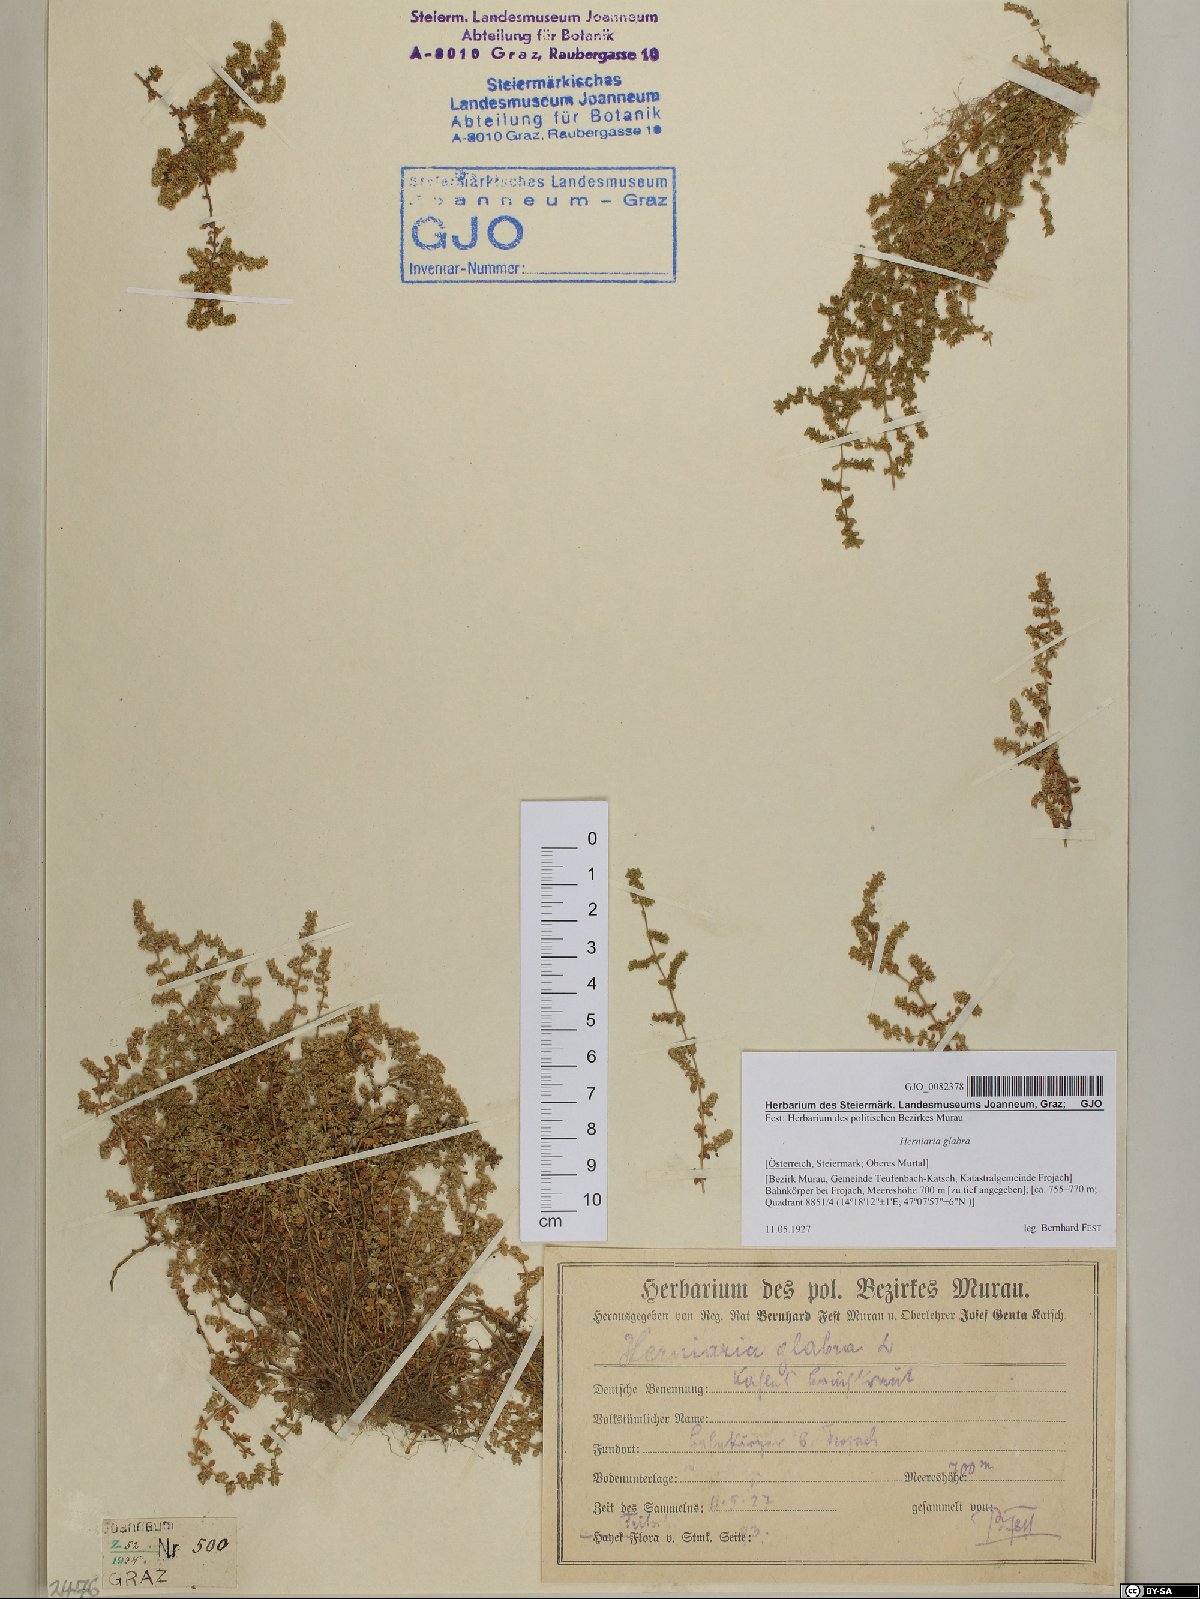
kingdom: Plantae
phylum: Tracheophyta
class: Magnoliopsida
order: Caryophyllales
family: Caryophyllaceae
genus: Herniaria
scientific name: Herniaria glabra
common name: Smooth rupturewort
